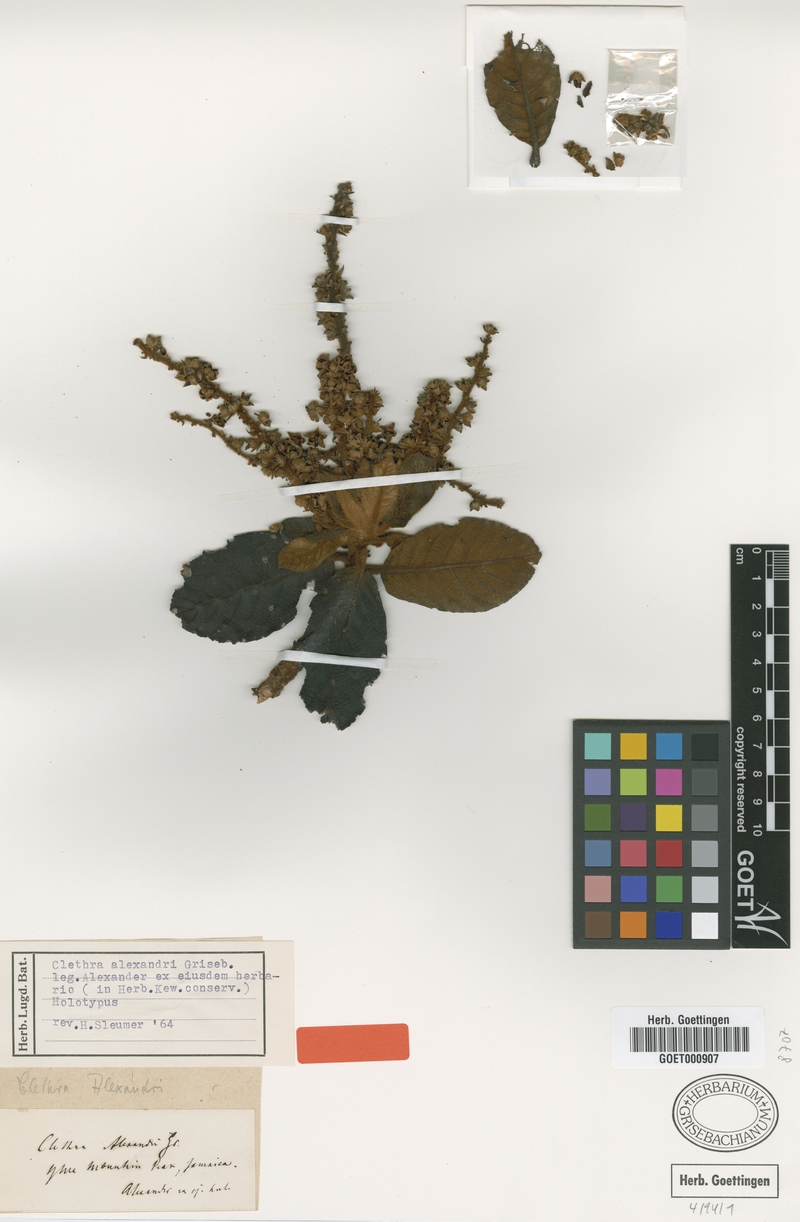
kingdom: Plantae
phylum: Tracheophyta
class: Magnoliopsida
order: Ericales
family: Clethraceae
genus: Clethra
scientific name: Clethra alexandri
